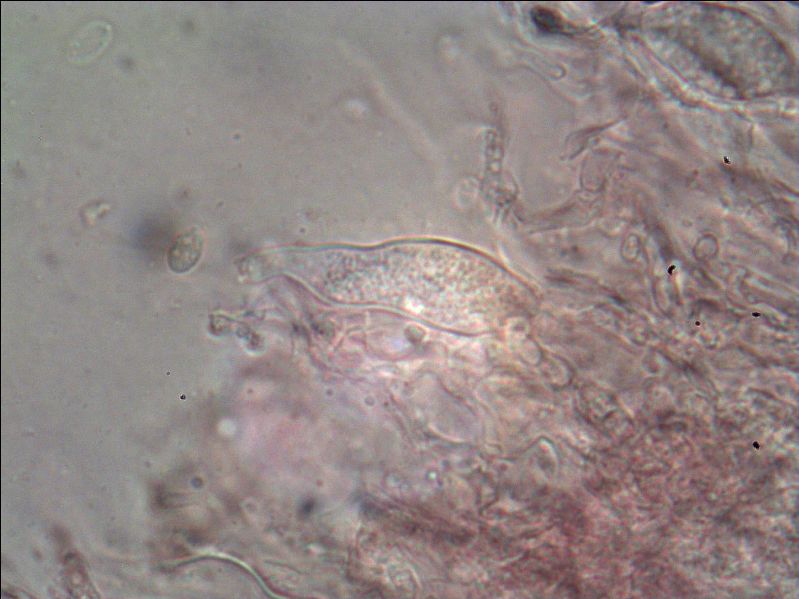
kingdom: Fungi
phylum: Basidiomycota
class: Agaricomycetes
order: Russulales
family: Stereaceae
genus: Gloeocystidiellum
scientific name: Gloeocystidiellum porosum
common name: mælkehvid olieskind
